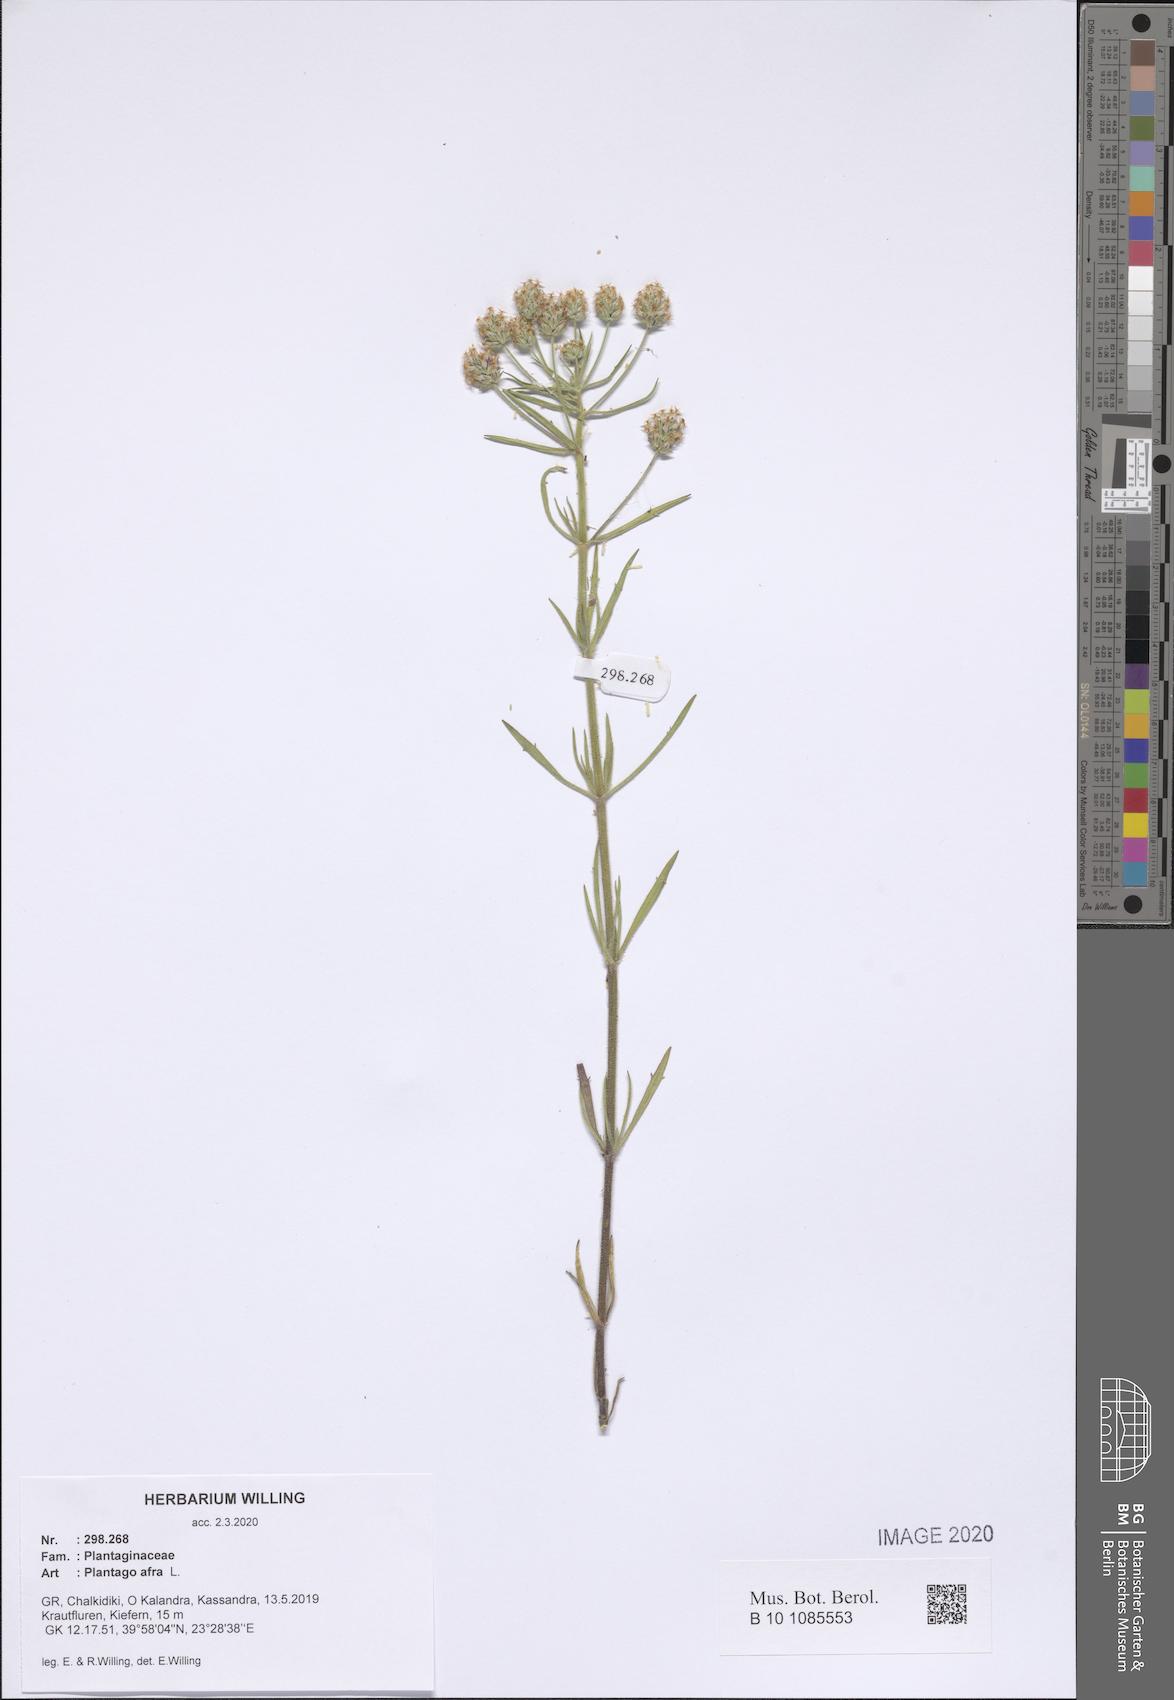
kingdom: Plantae
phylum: Tracheophyta
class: Magnoliopsida
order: Lamiales
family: Plantaginaceae
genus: Plantago
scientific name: Plantago afra
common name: Glandular plantain
